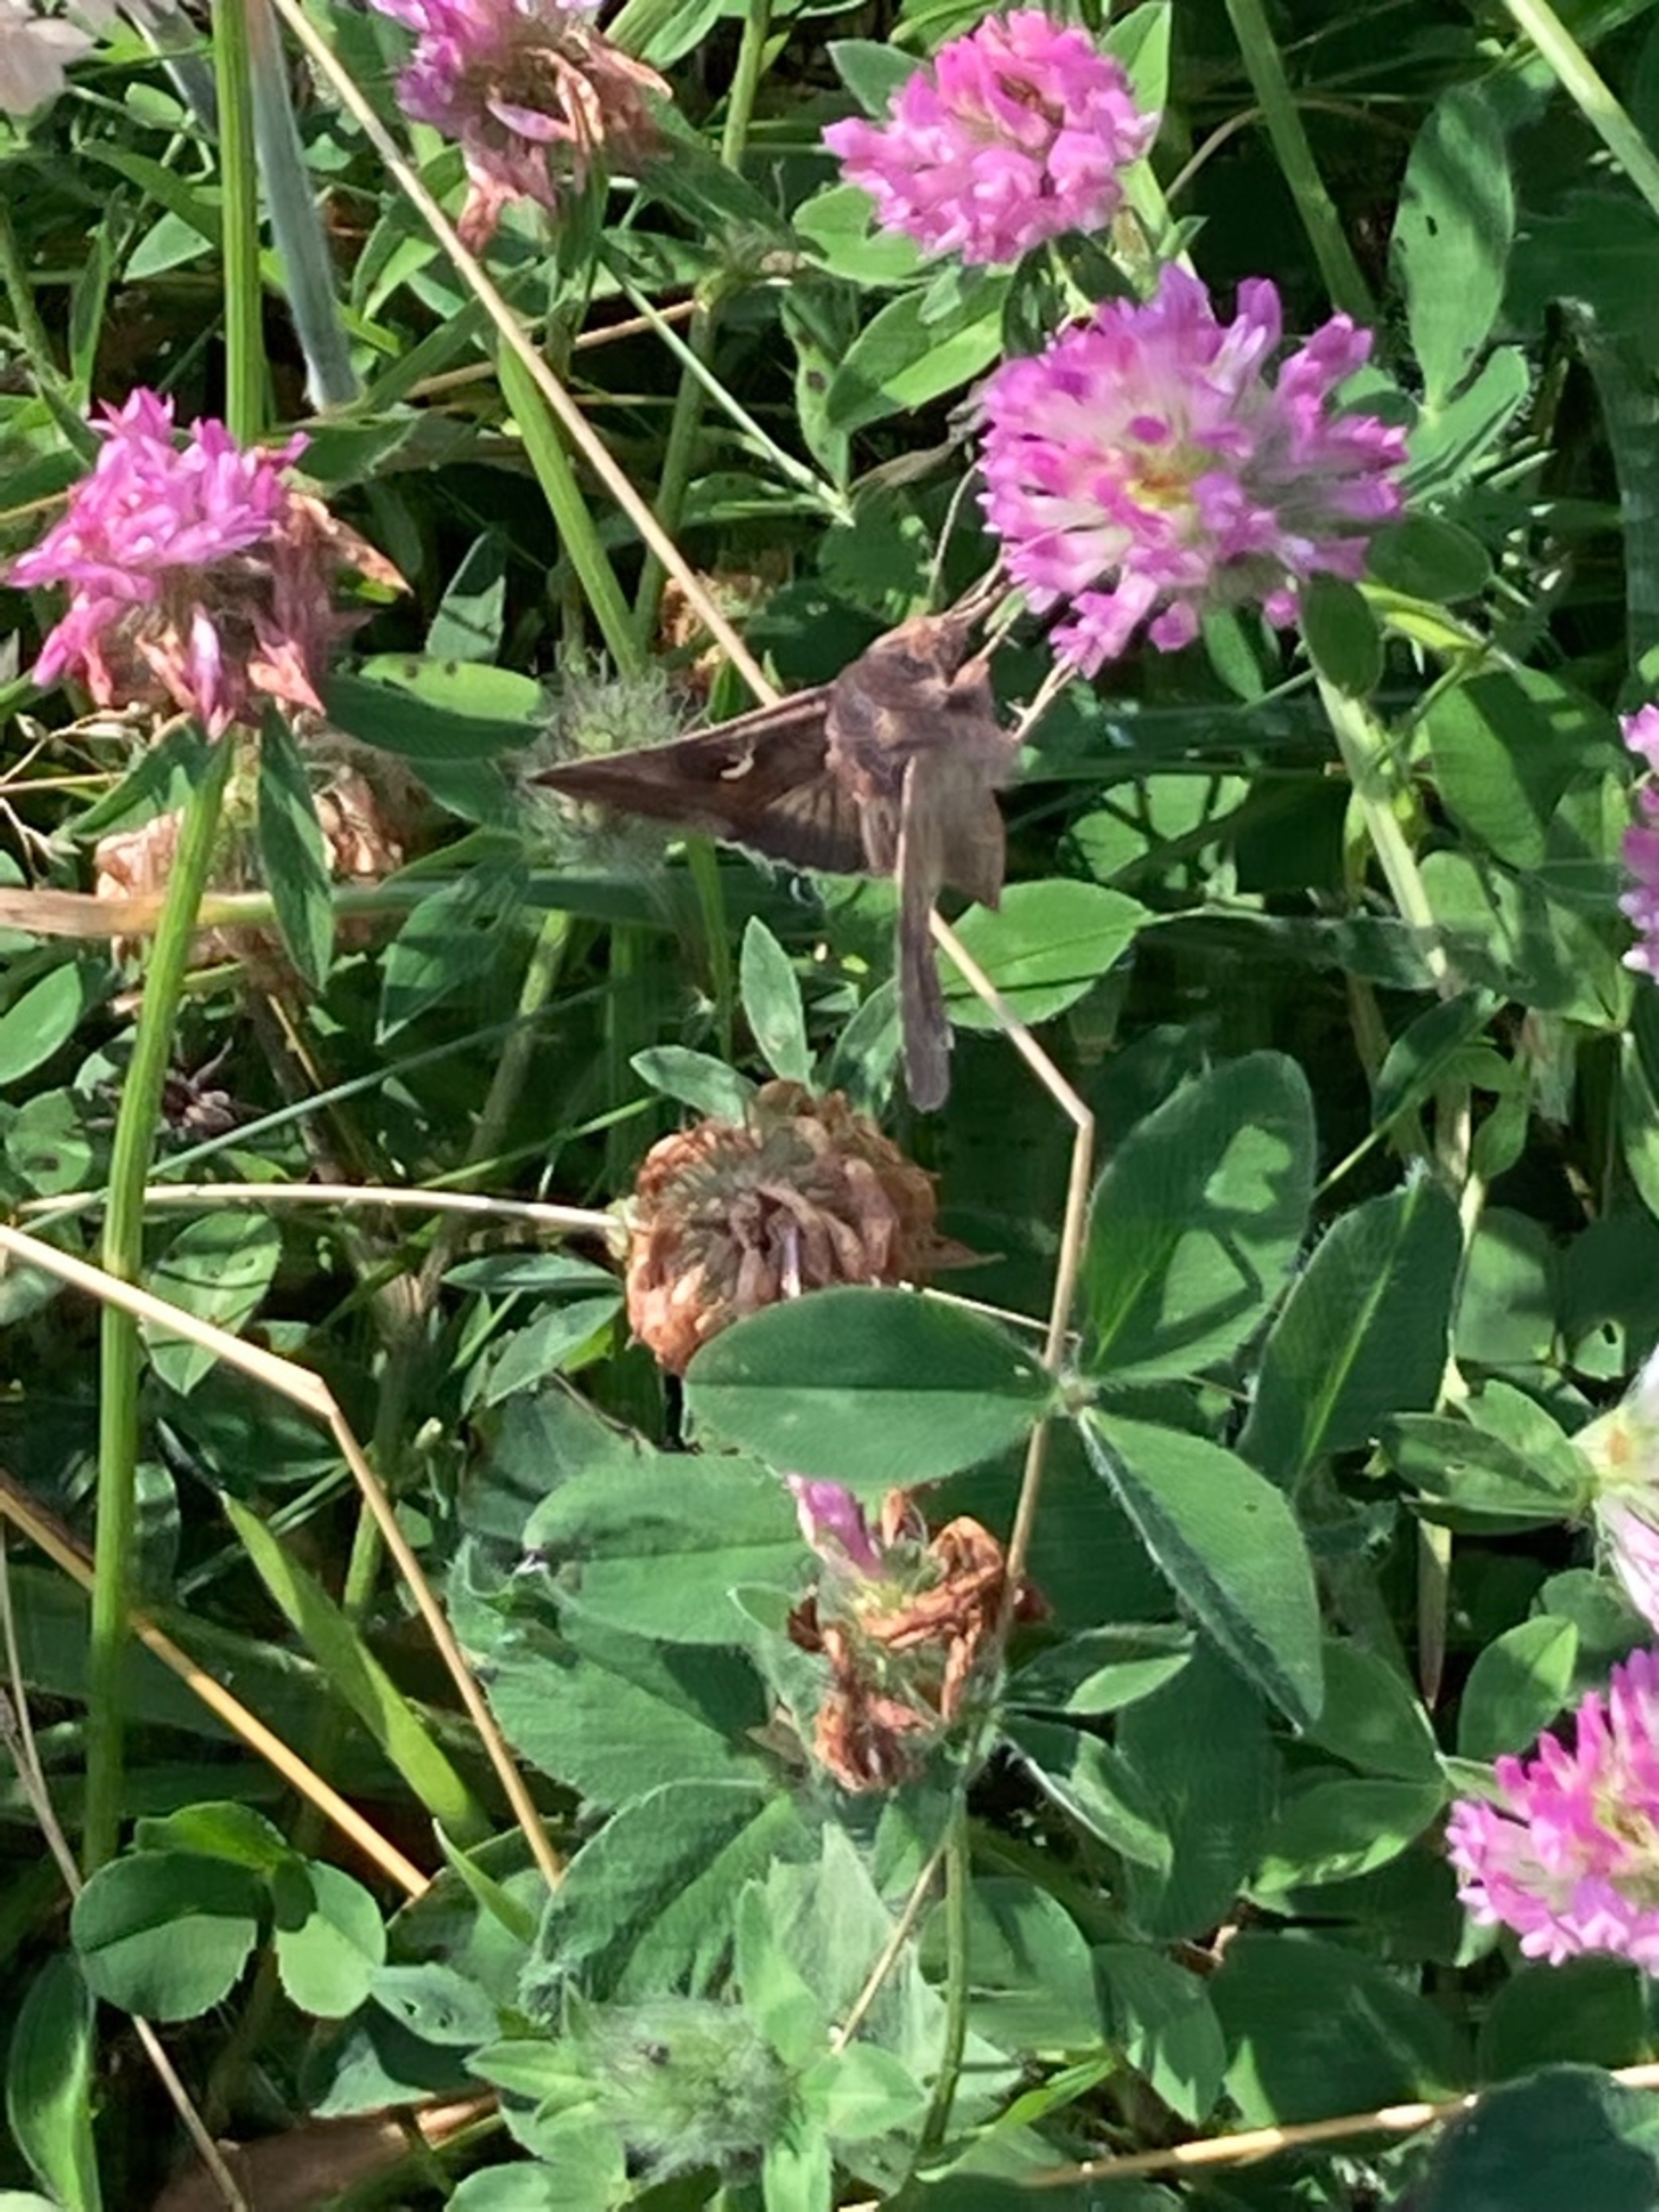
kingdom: Animalia
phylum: Arthropoda
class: Insecta
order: Lepidoptera
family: Noctuidae
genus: Autographa
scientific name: Autographa gamma
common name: Gammaugle
